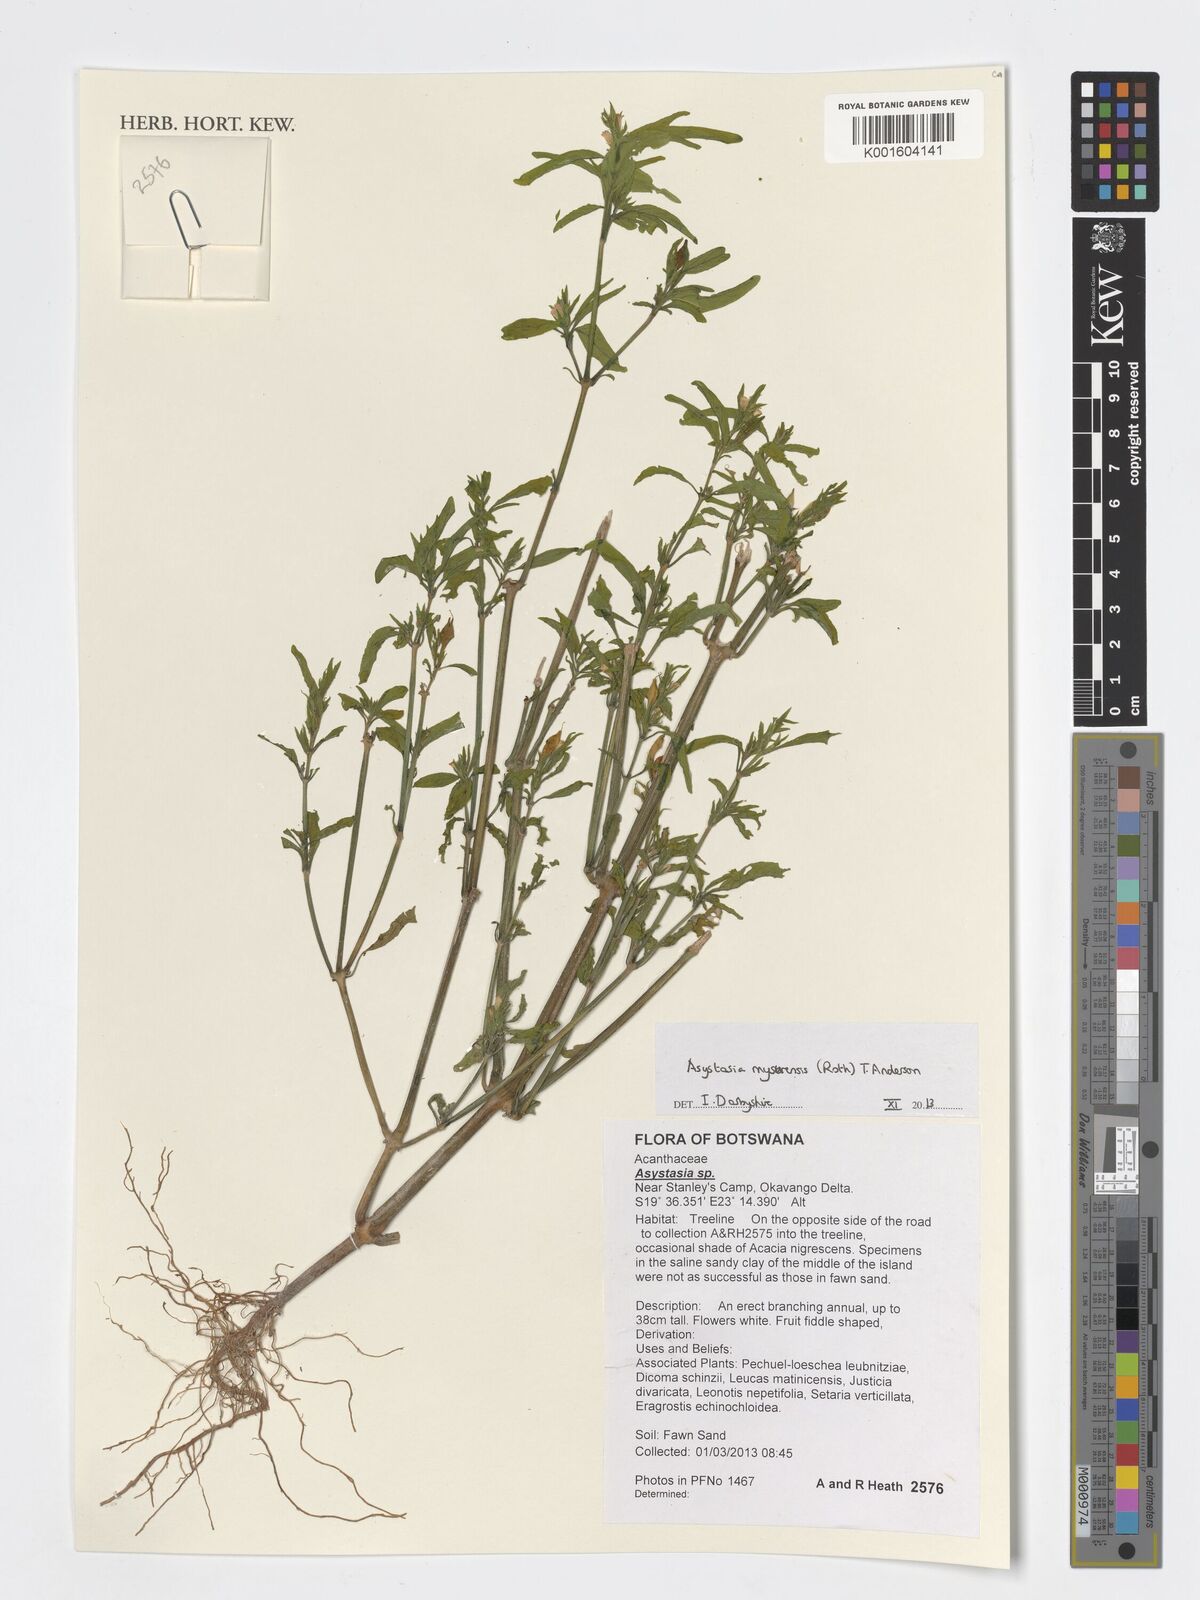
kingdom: Plantae
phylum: Tracheophyta
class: Magnoliopsida
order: Lamiales
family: Acanthaceae
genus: Asystasia
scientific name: Asystasia mysorensis
